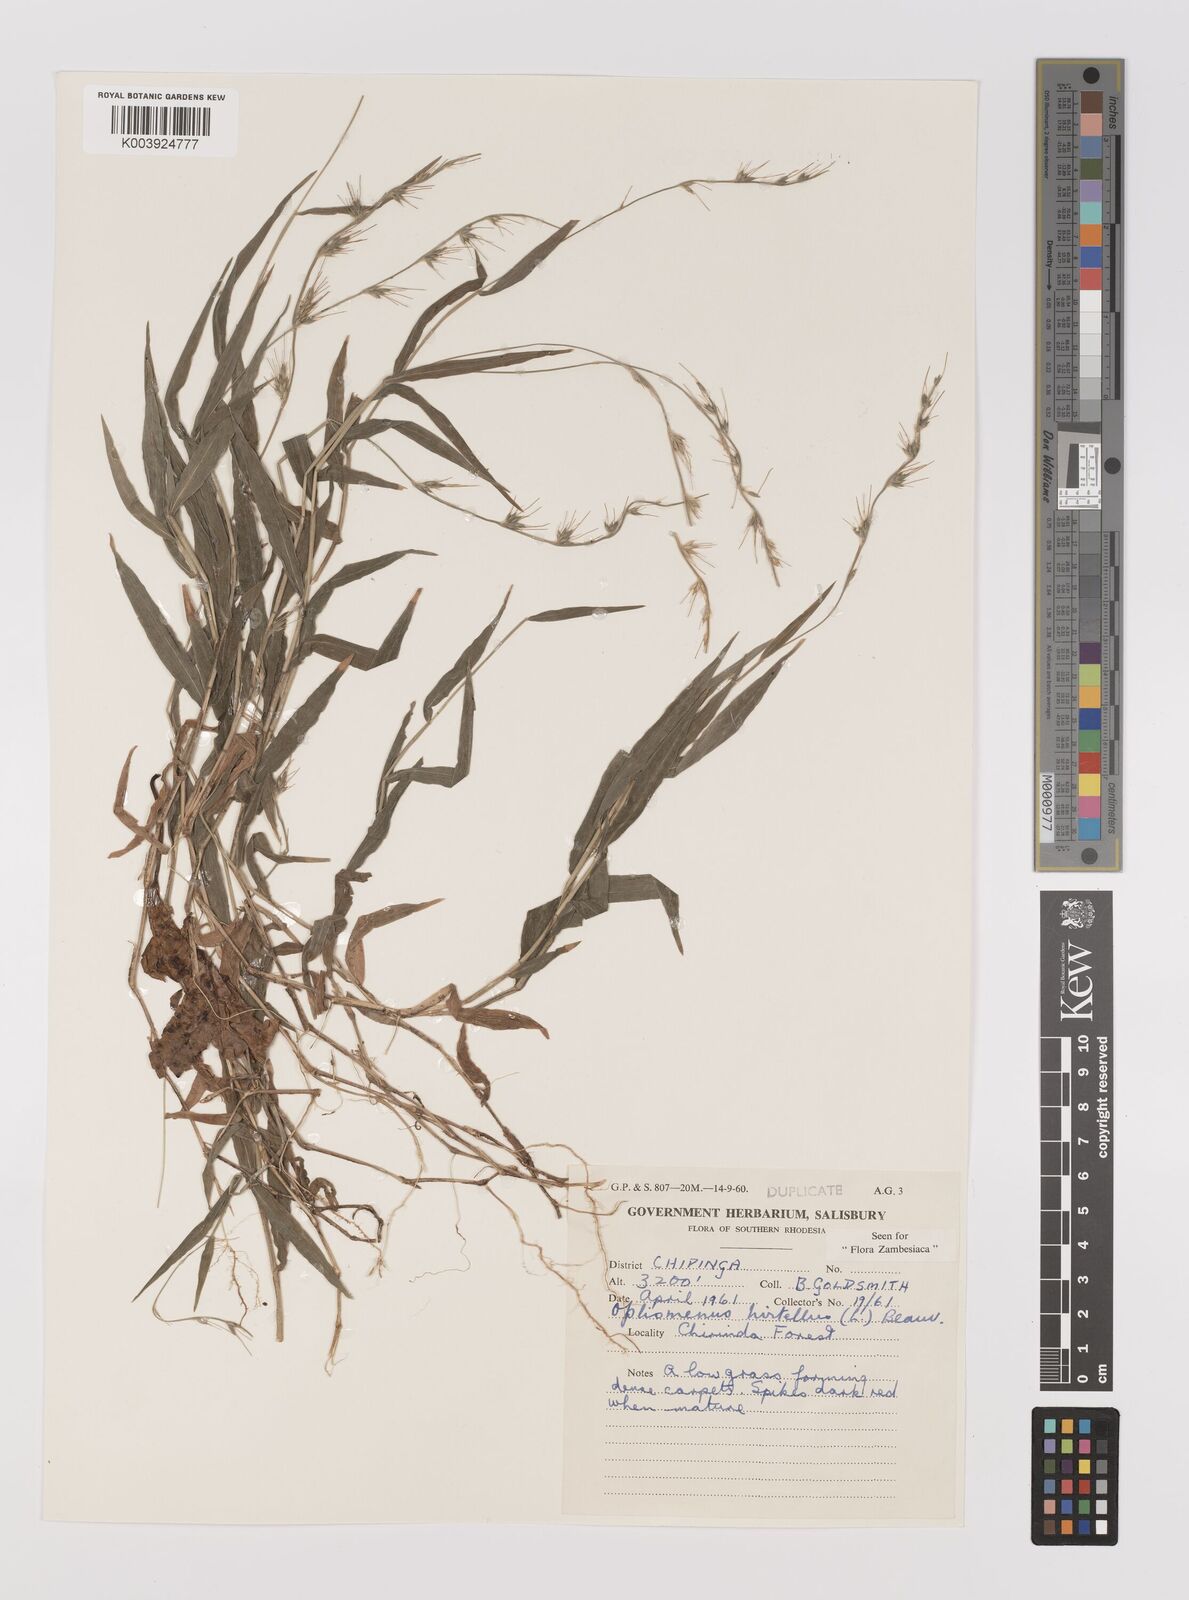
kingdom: Plantae
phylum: Tracheophyta
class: Liliopsida
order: Poales
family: Poaceae
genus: Oplismenus
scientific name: Oplismenus hirtellus
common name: Basketgrass
